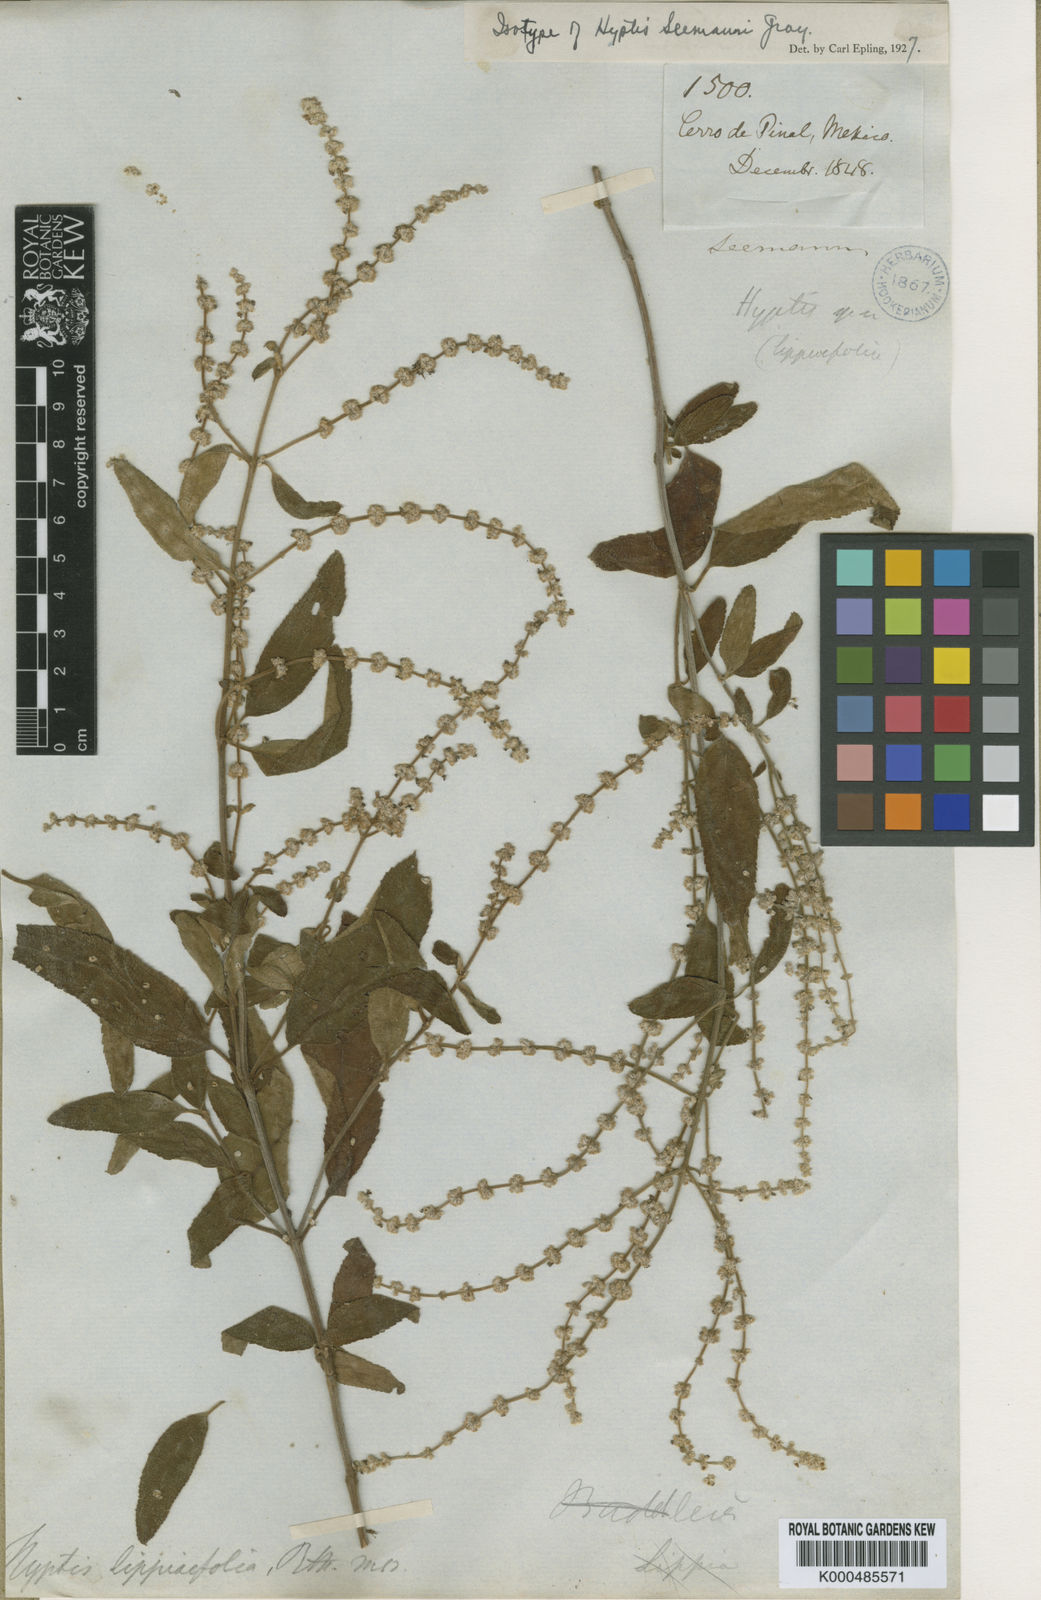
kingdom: Plantae
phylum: Tracheophyta
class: Magnoliopsida
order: Lamiales
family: Lamiaceae
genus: Asterohyptis
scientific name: Asterohyptis seemannii
